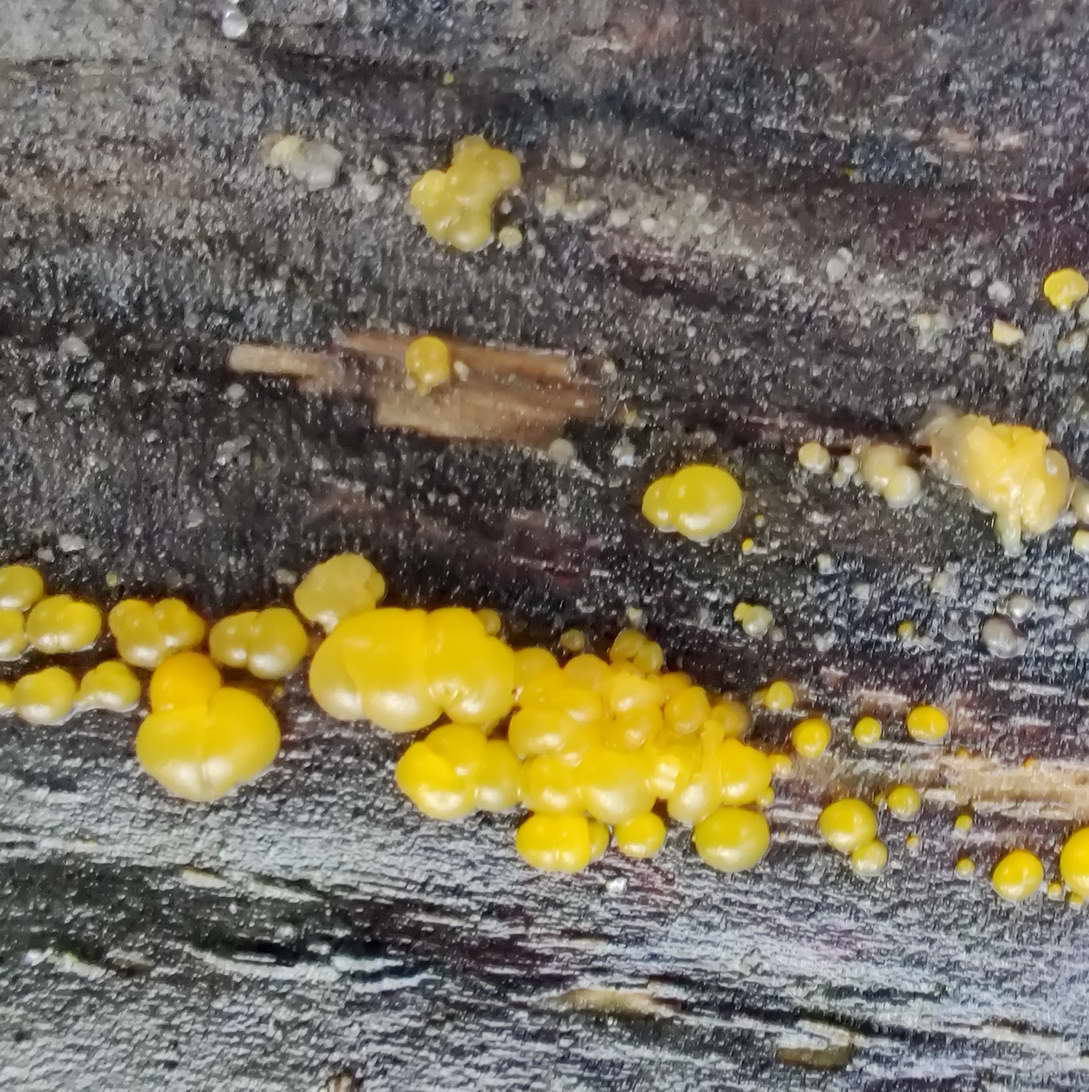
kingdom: Fungi
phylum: Basidiomycota
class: Dacrymycetes
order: Dacrymycetales
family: Dacrymycetaceae
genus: Dacrymyces
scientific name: Dacrymyces
